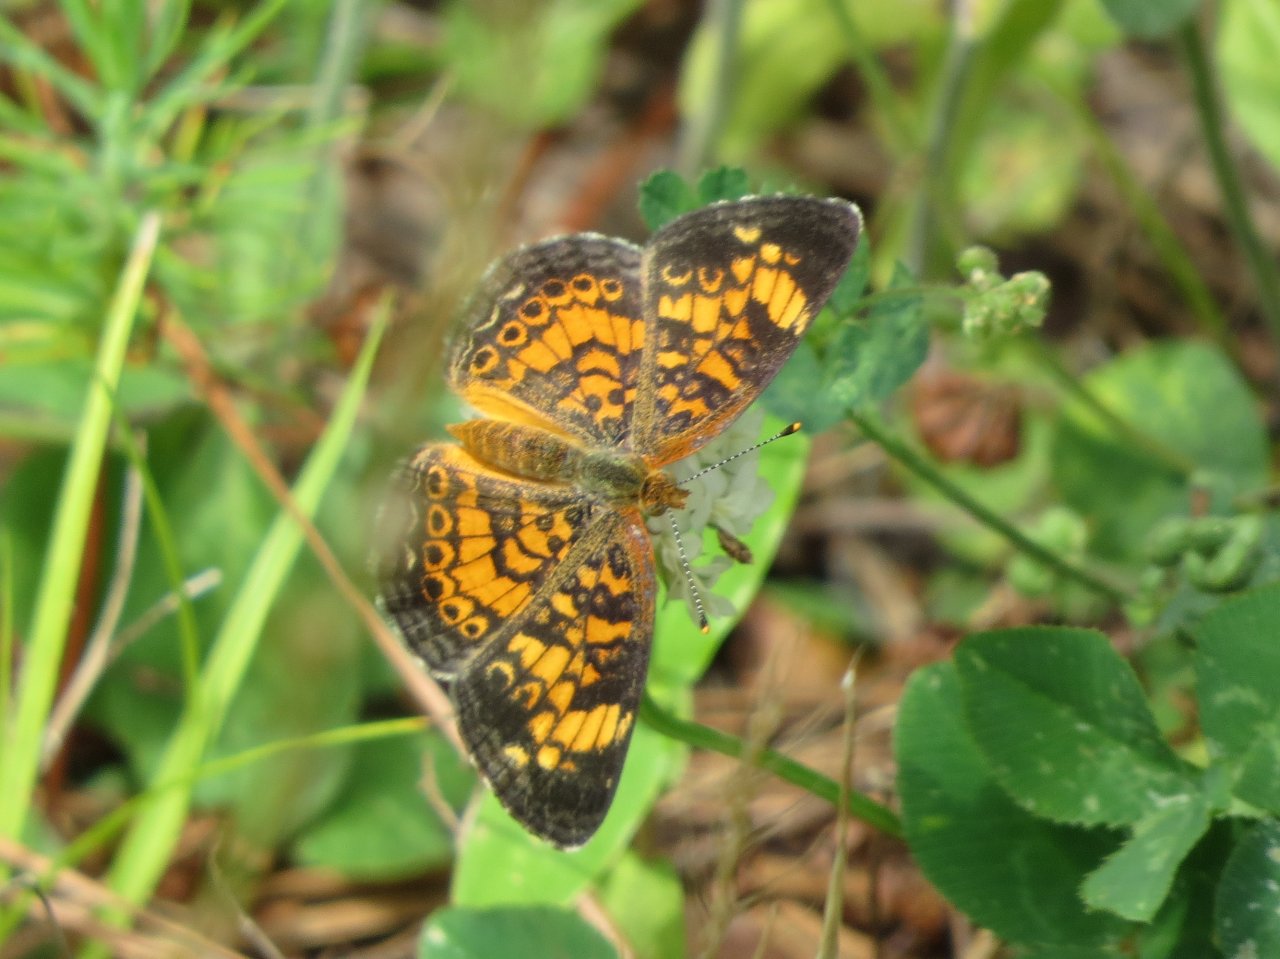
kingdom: Animalia
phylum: Arthropoda
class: Insecta
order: Lepidoptera
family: Nymphalidae
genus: Phyciodes
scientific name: Phyciodes tharos
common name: Pearl Crescent
